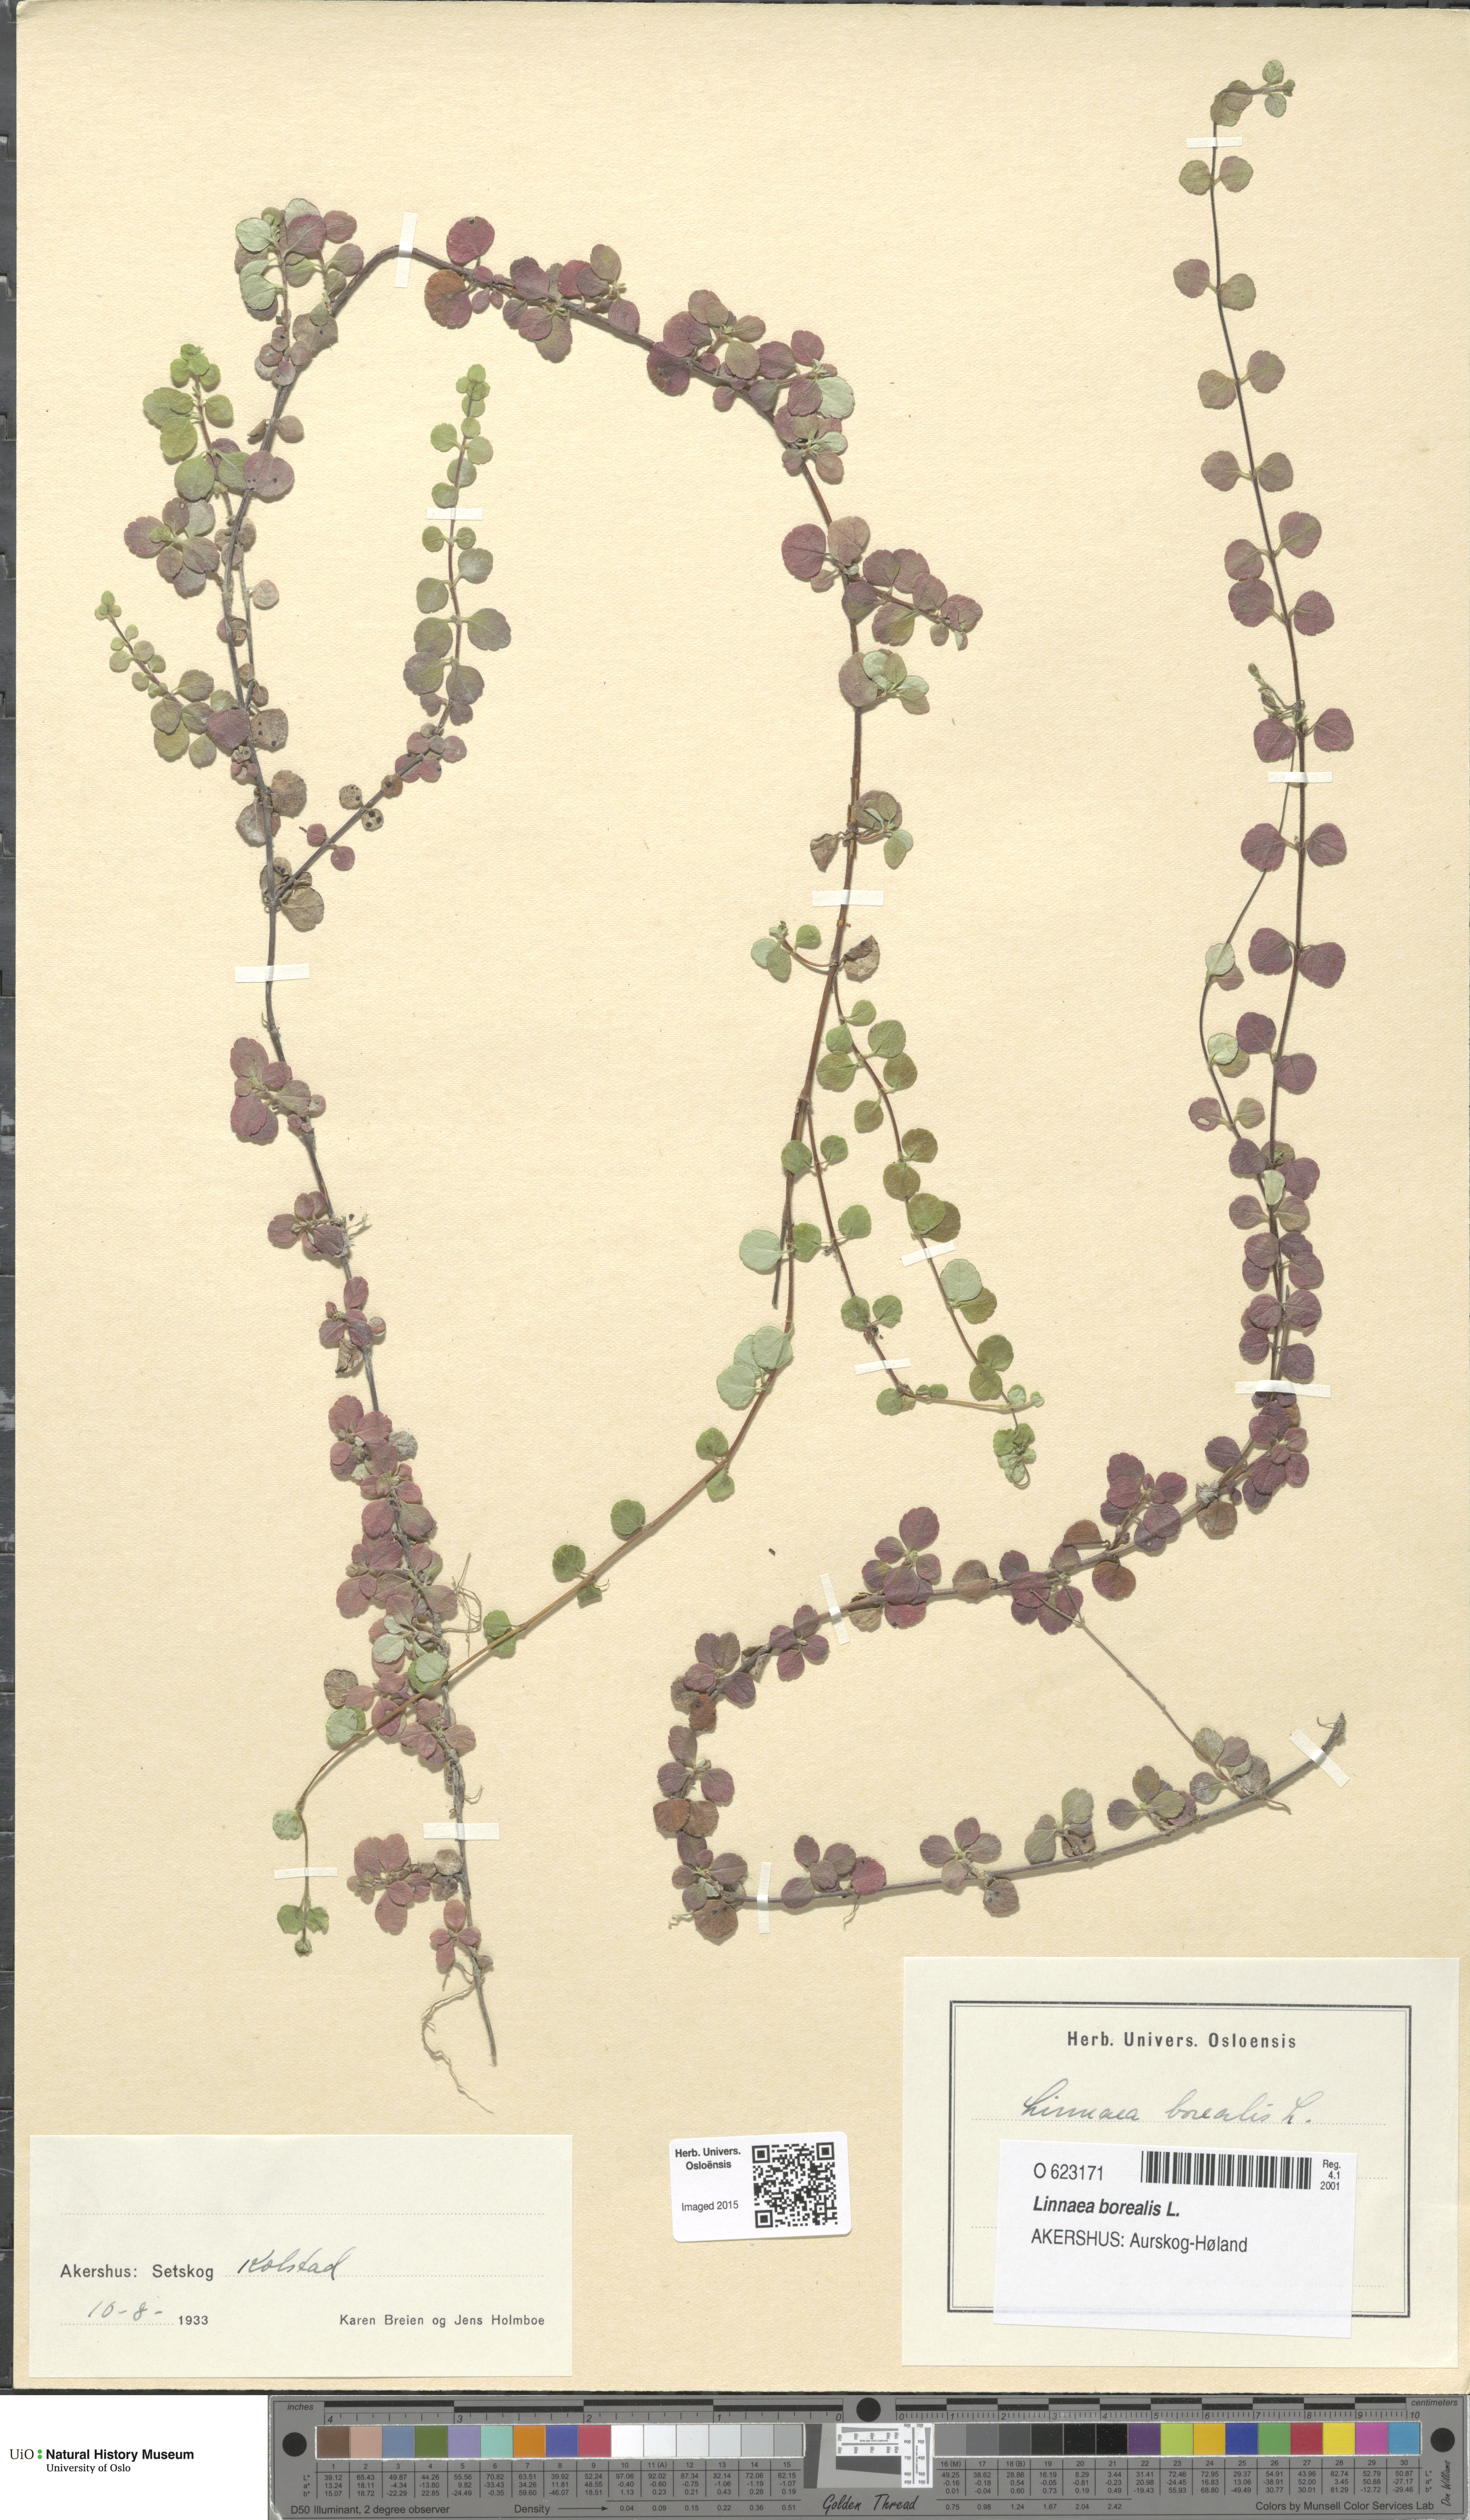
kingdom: Plantae
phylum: Tracheophyta
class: Magnoliopsida
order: Dipsacales
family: Caprifoliaceae
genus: Linnaea
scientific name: Linnaea borealis
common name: Twinflower
